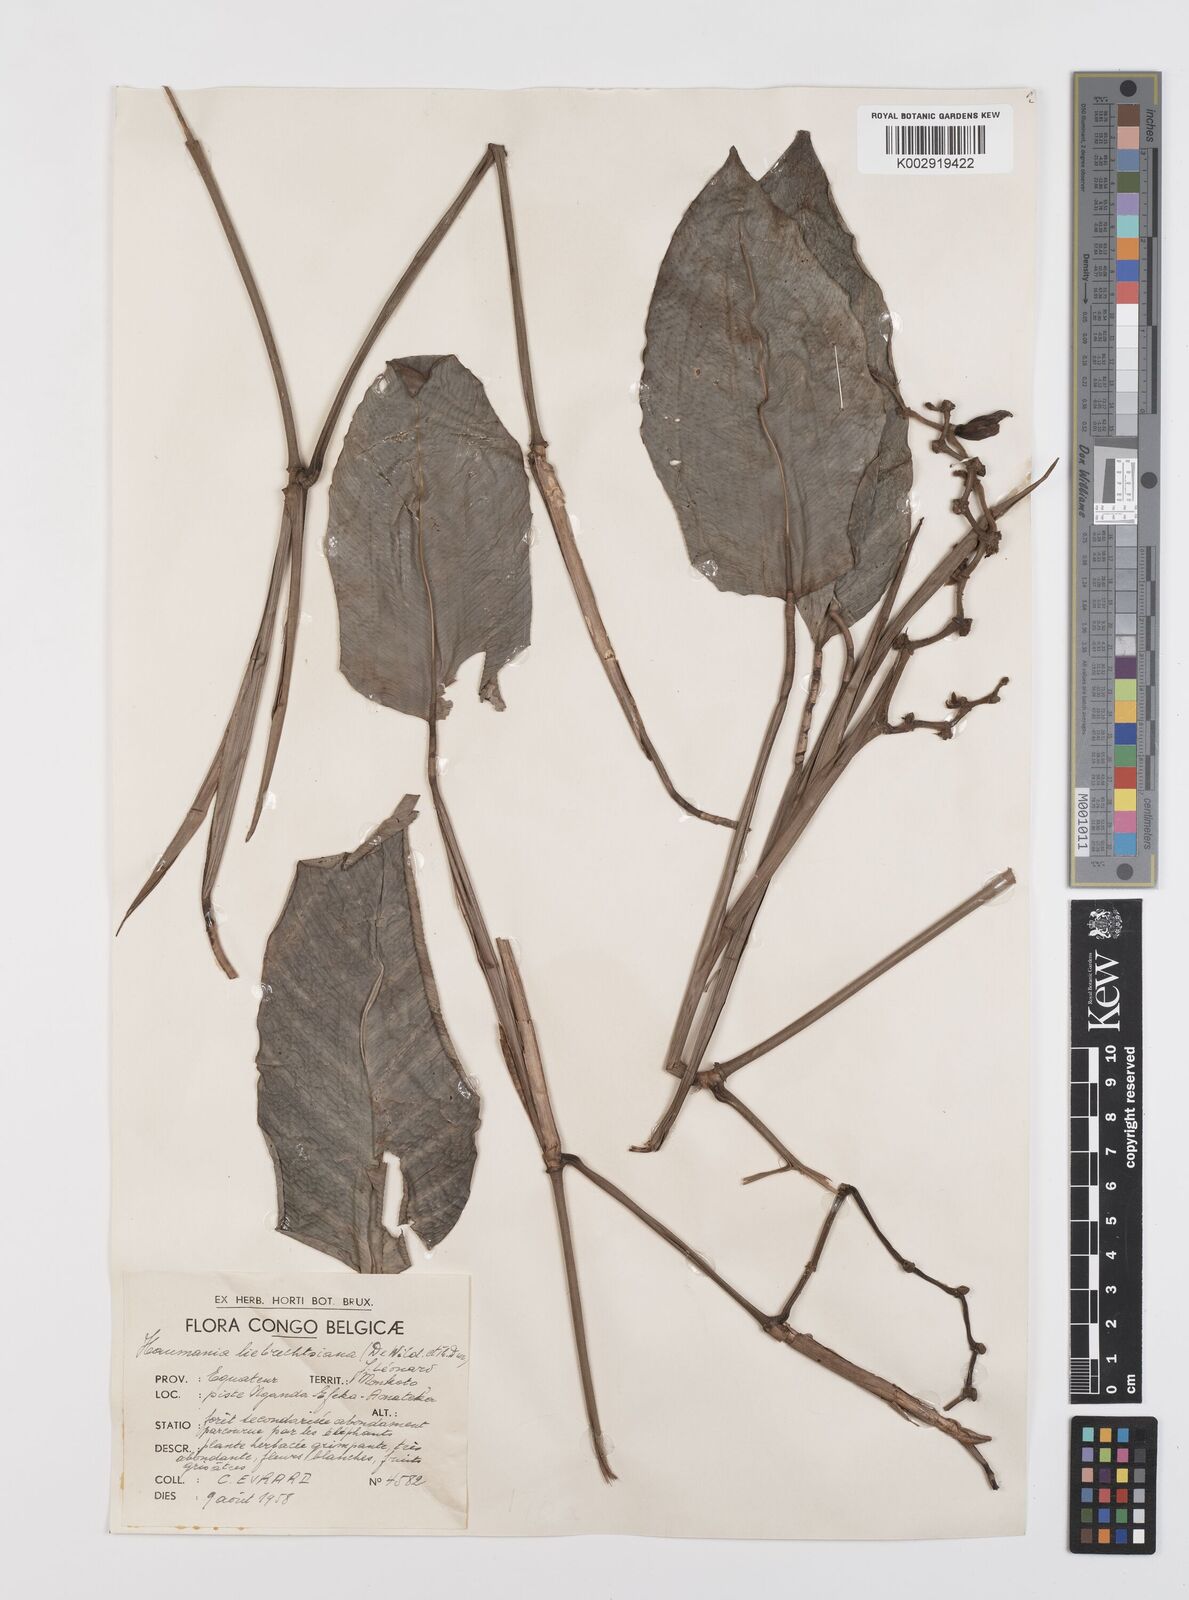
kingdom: Plantae
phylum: Tracheophyta
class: Liliopsida
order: Zingiberales
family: Marantaceae
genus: Haumania
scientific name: Haumania liebrechtsiana
